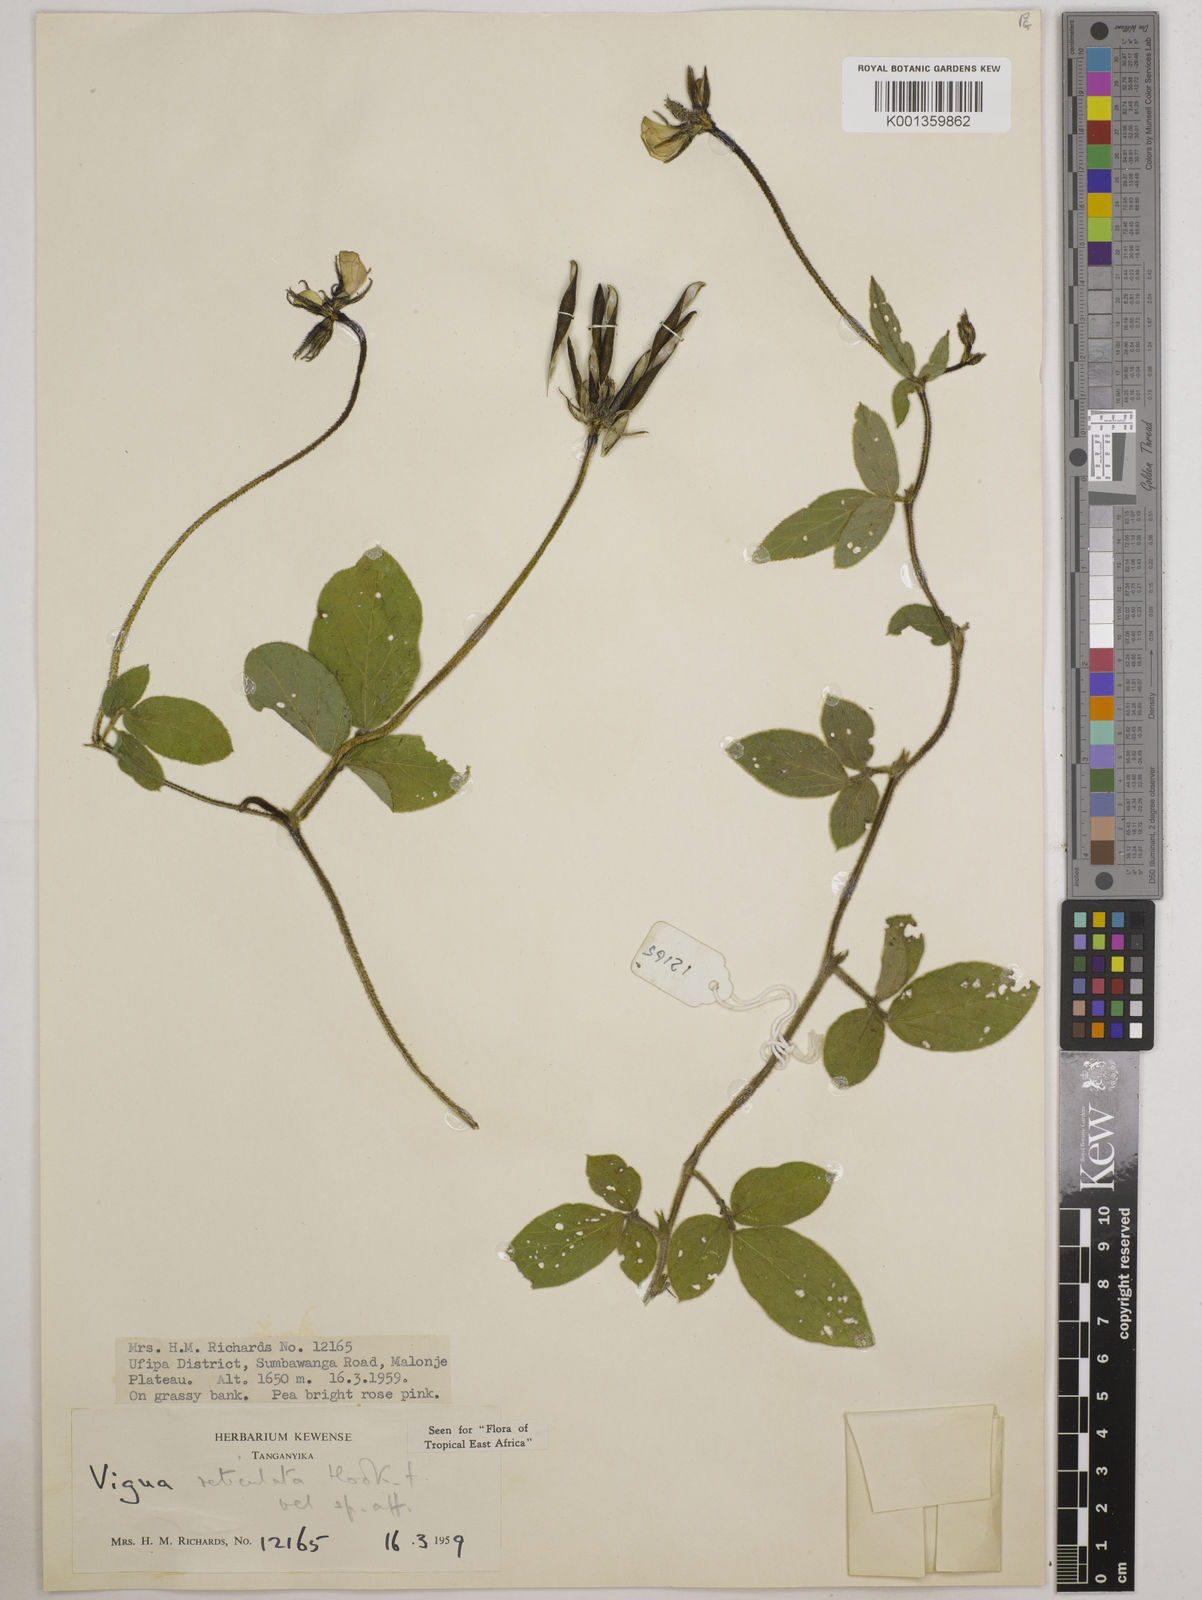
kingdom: Plantae
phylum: Tracheophyta
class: Magnoliopsida
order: Fabales
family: Fabaceae
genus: Vigna
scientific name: Vigna reticulata
